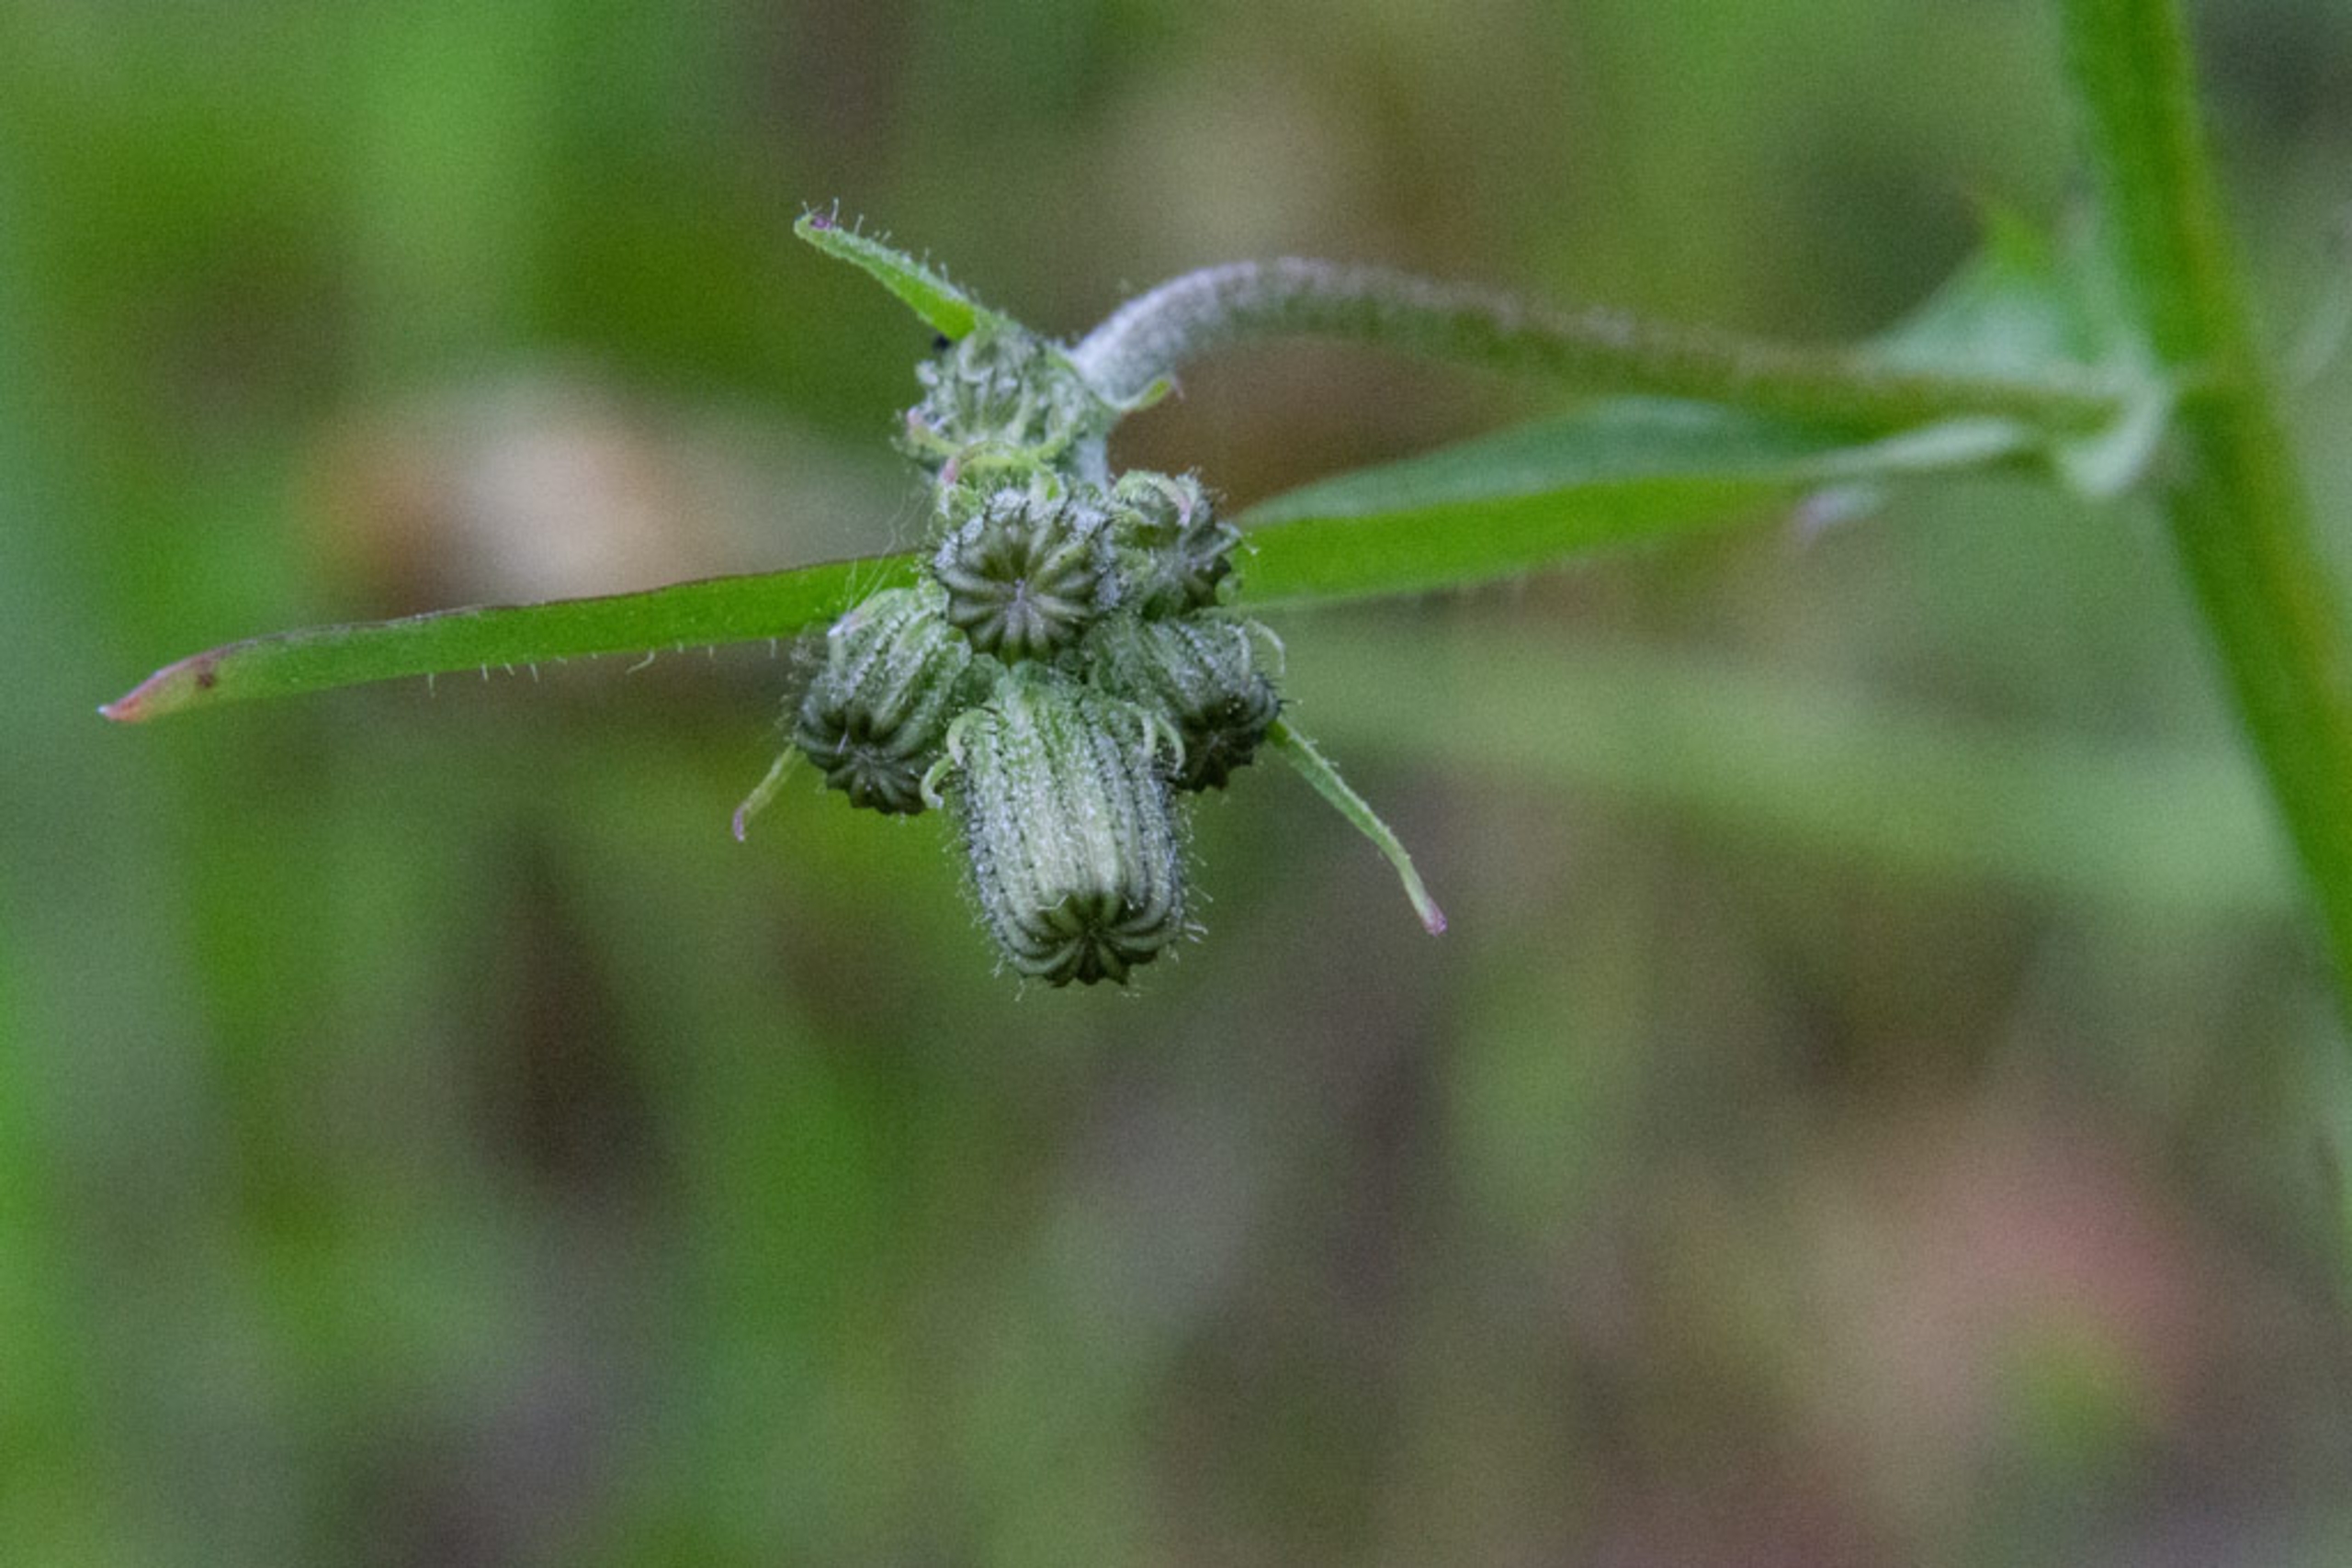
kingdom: Plantae
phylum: Tracheophyta
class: Magnoliopsida
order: Asterales
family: Asteraceae
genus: Crepis
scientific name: Crepis capillaris
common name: Grøn høgeskæg
